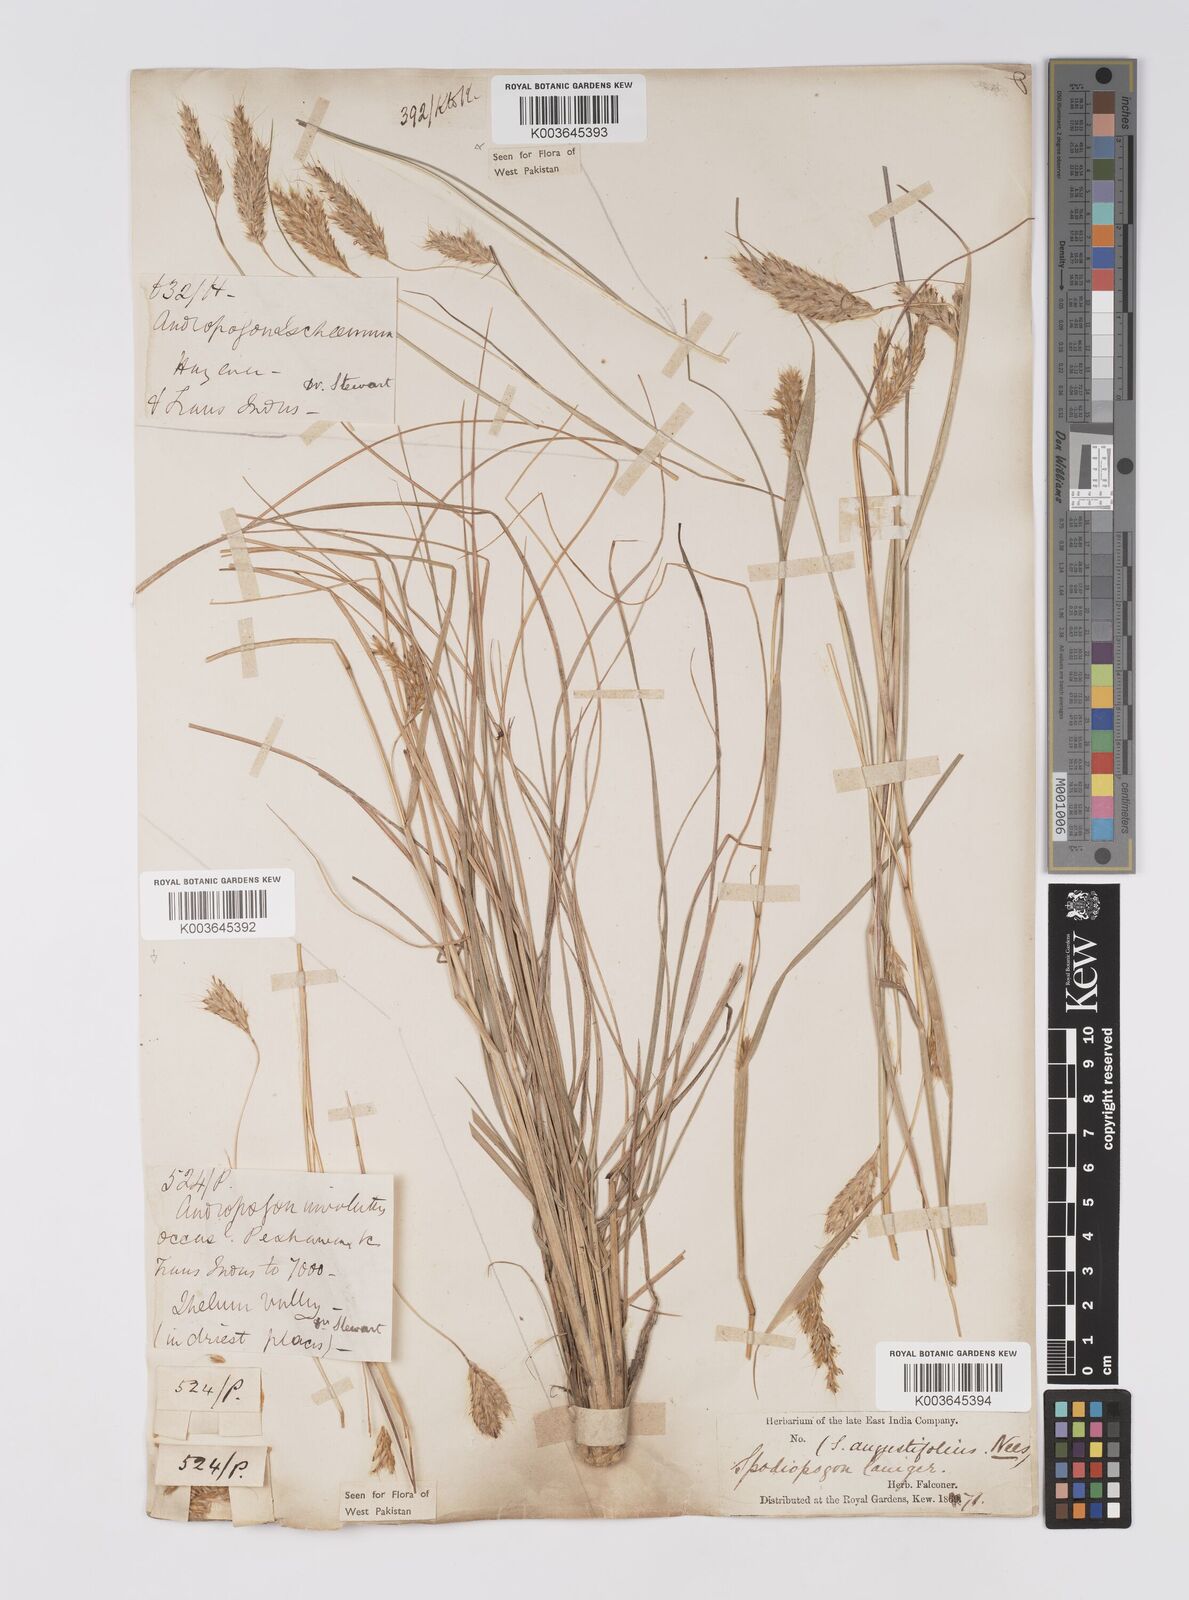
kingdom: Plantae
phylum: Tracheophyta
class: Liliopsida
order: Poales
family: Poaceae
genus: Eulaliopsis
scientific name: Eulaliopsis binata
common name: Baib grass
